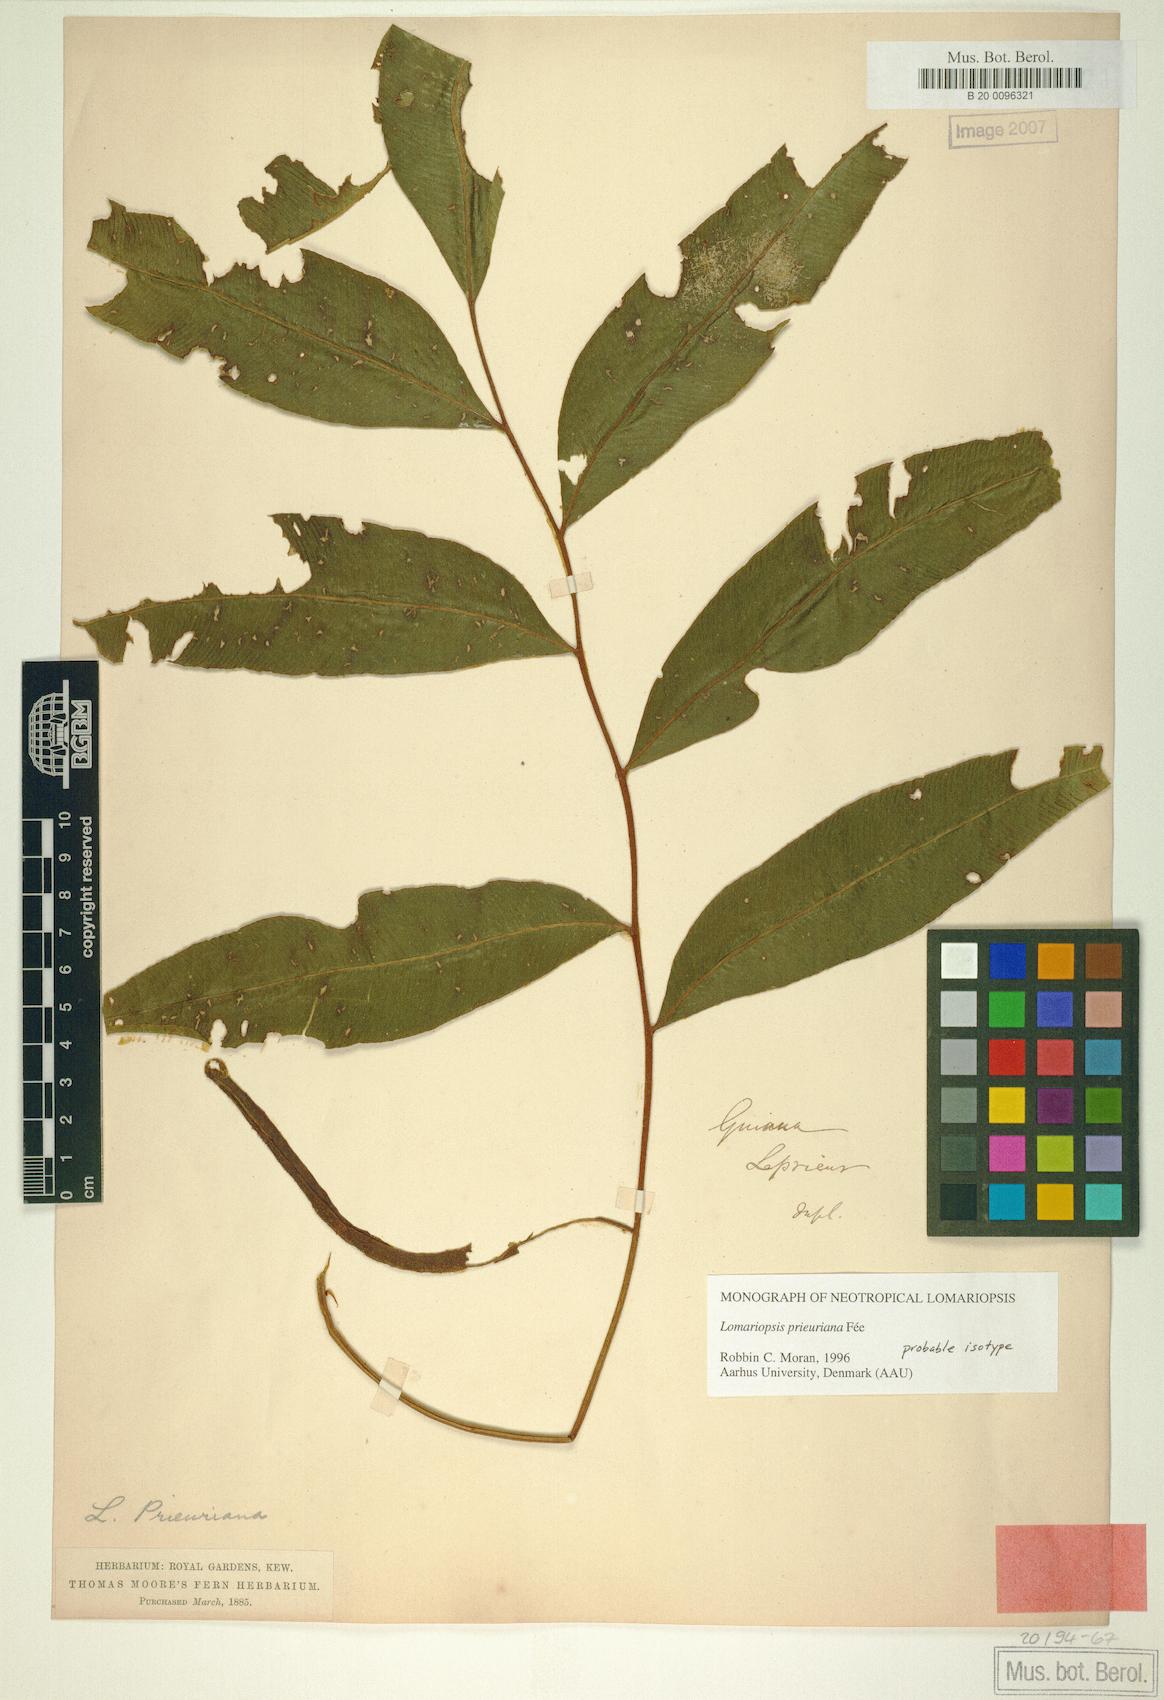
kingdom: Plantae
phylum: Tracheophyta
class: Polypodiopsida
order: Polypodiales
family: Lomariopsidaceae
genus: Lomariopsis
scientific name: Lomariopsis prieuriana
